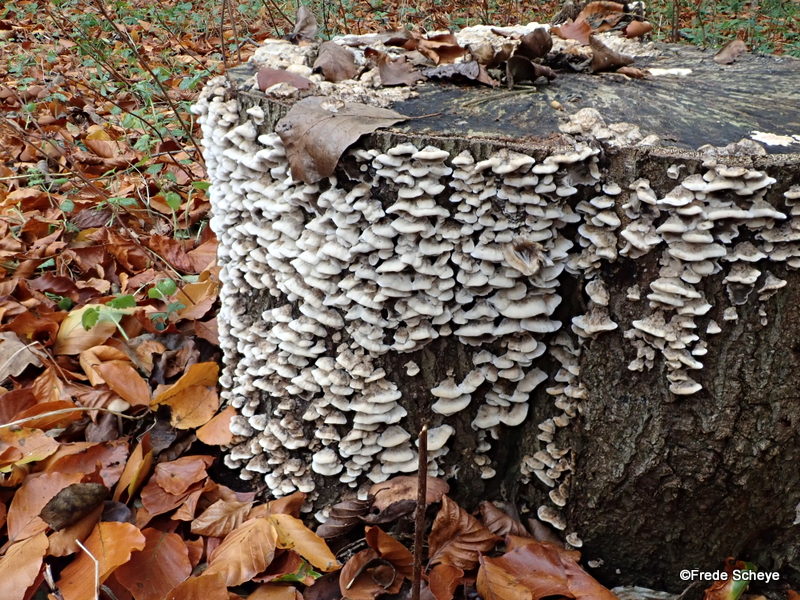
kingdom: Fungi
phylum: Basidiomycota
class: Agaricomycetes
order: Polyporales
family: Phanerochaetaceae
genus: Bjerkandera
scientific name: Bjerkandera adusta
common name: sveden sodporesvamp
